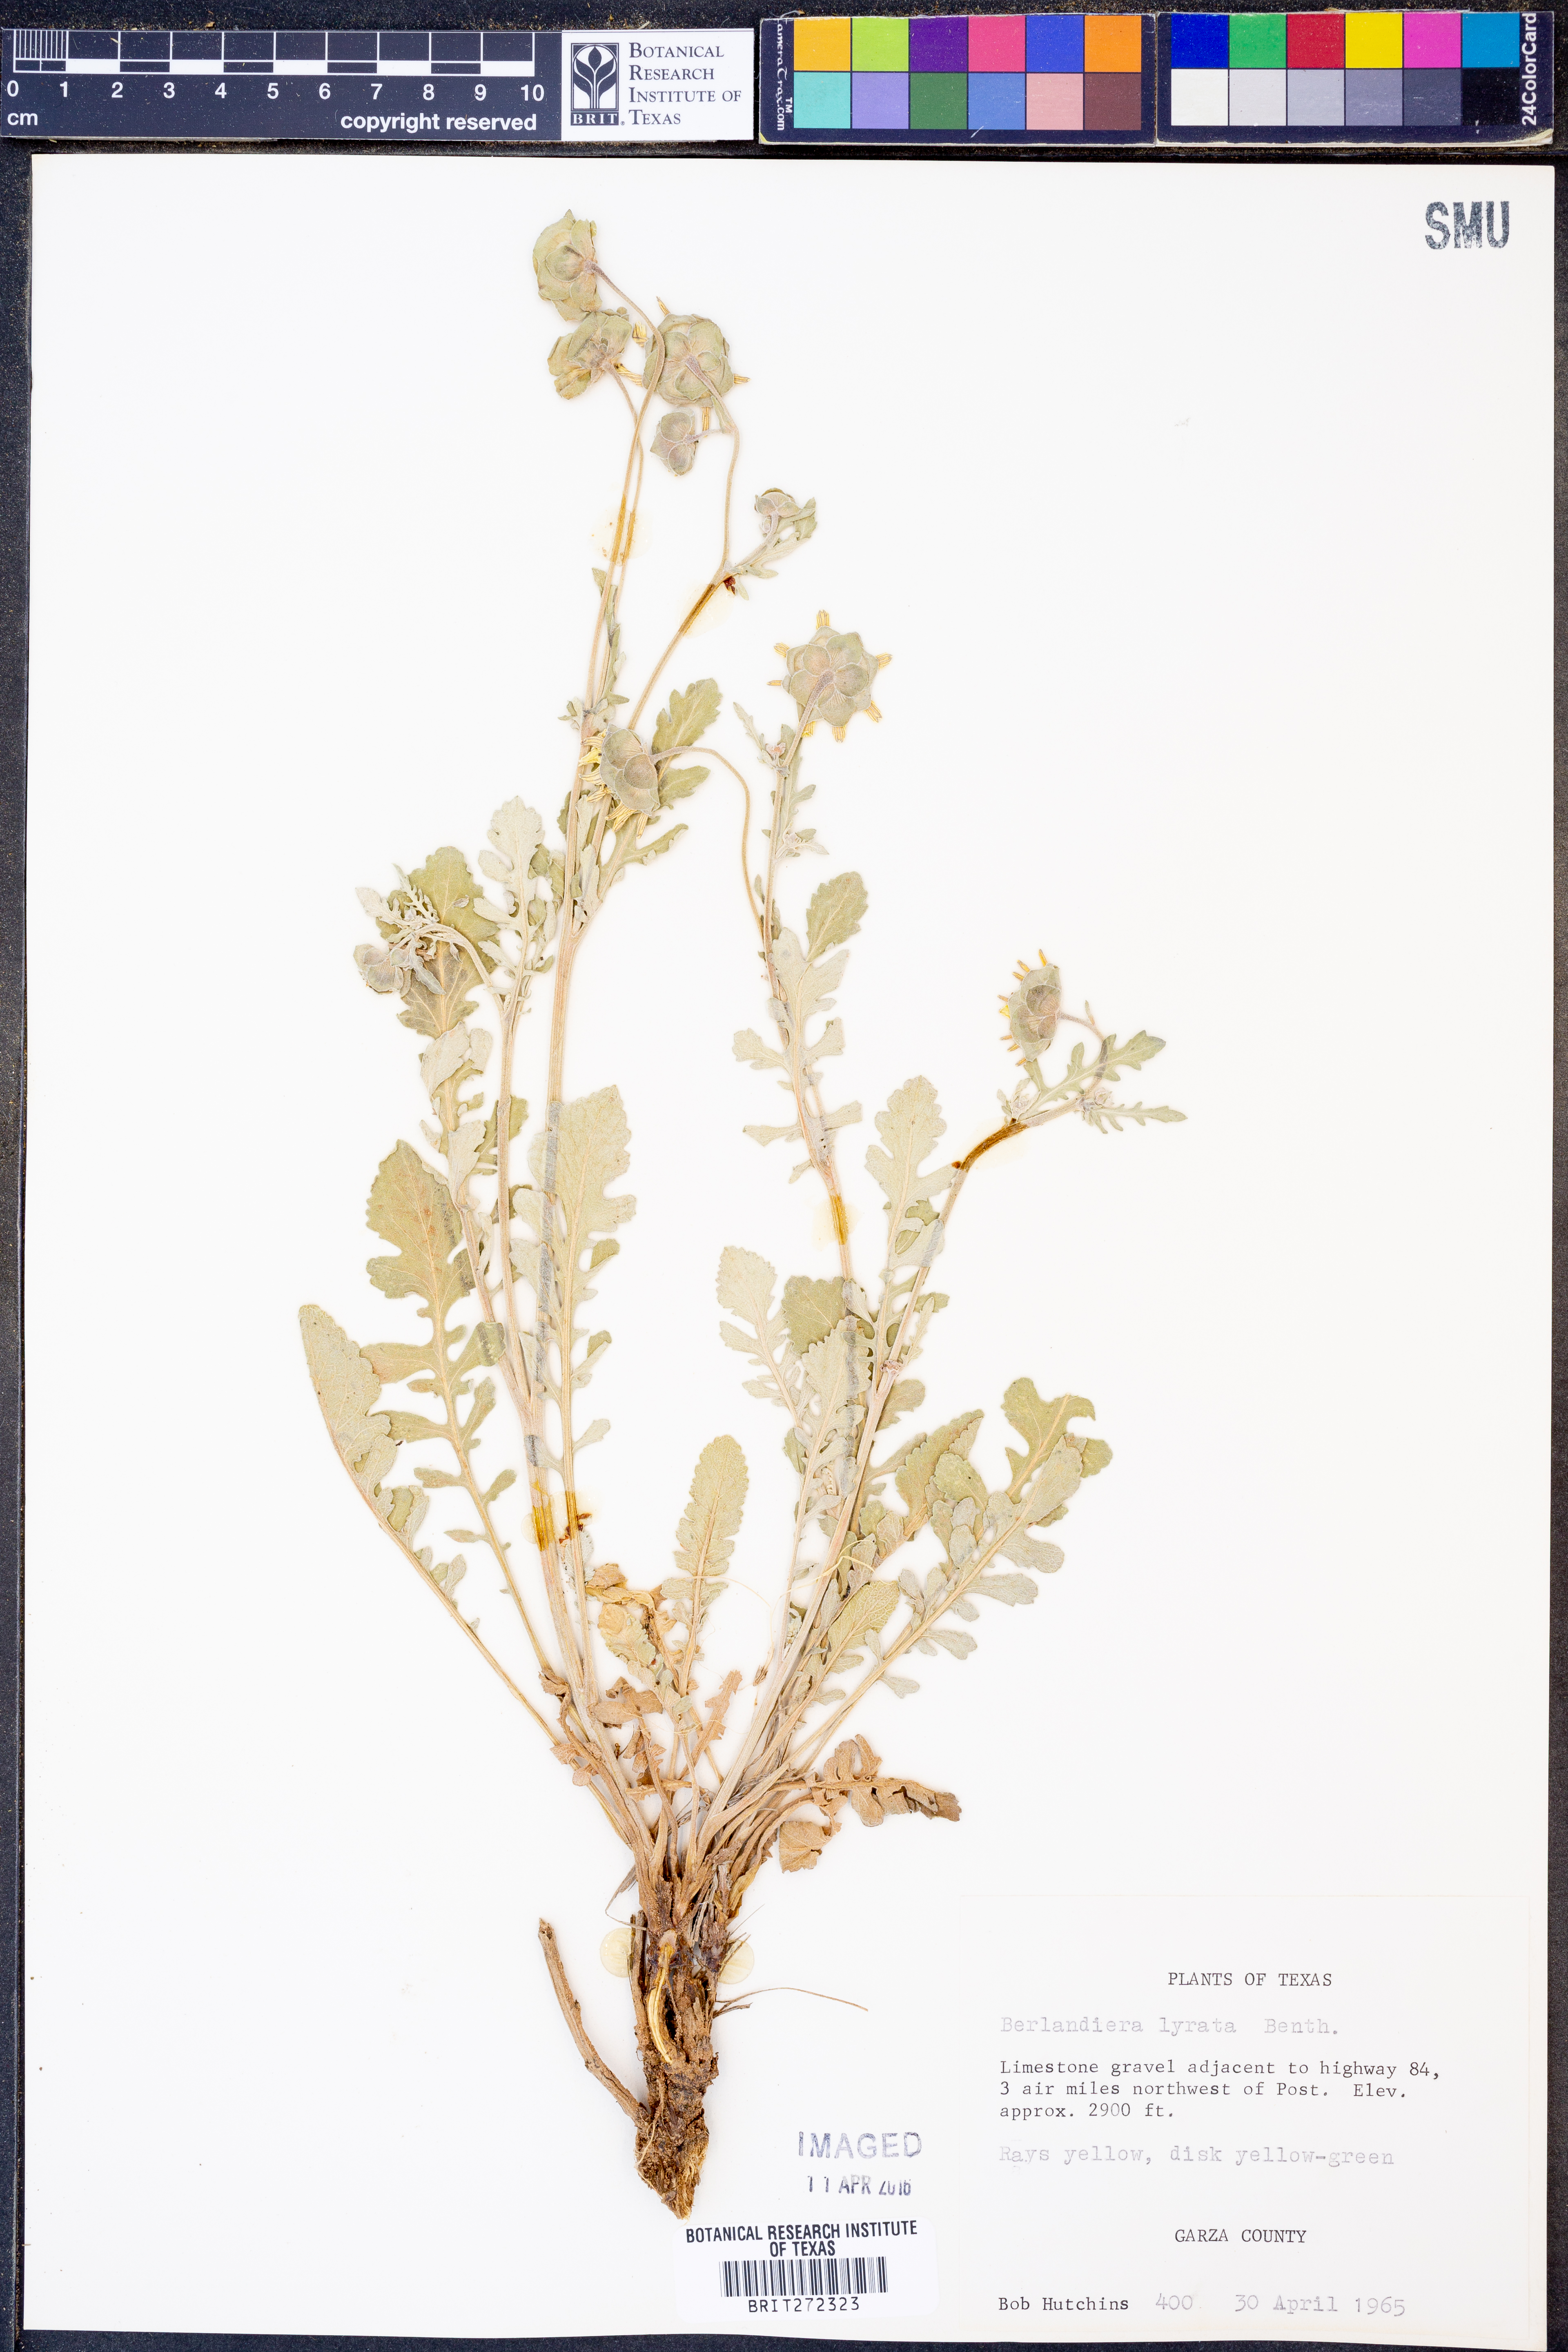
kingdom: Plantae
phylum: Tracheophyta
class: Magnoliopsida
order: Asterales
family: Asteraceae
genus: Berlandiera
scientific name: Berlandiera lyrata
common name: Chocolate-flower
